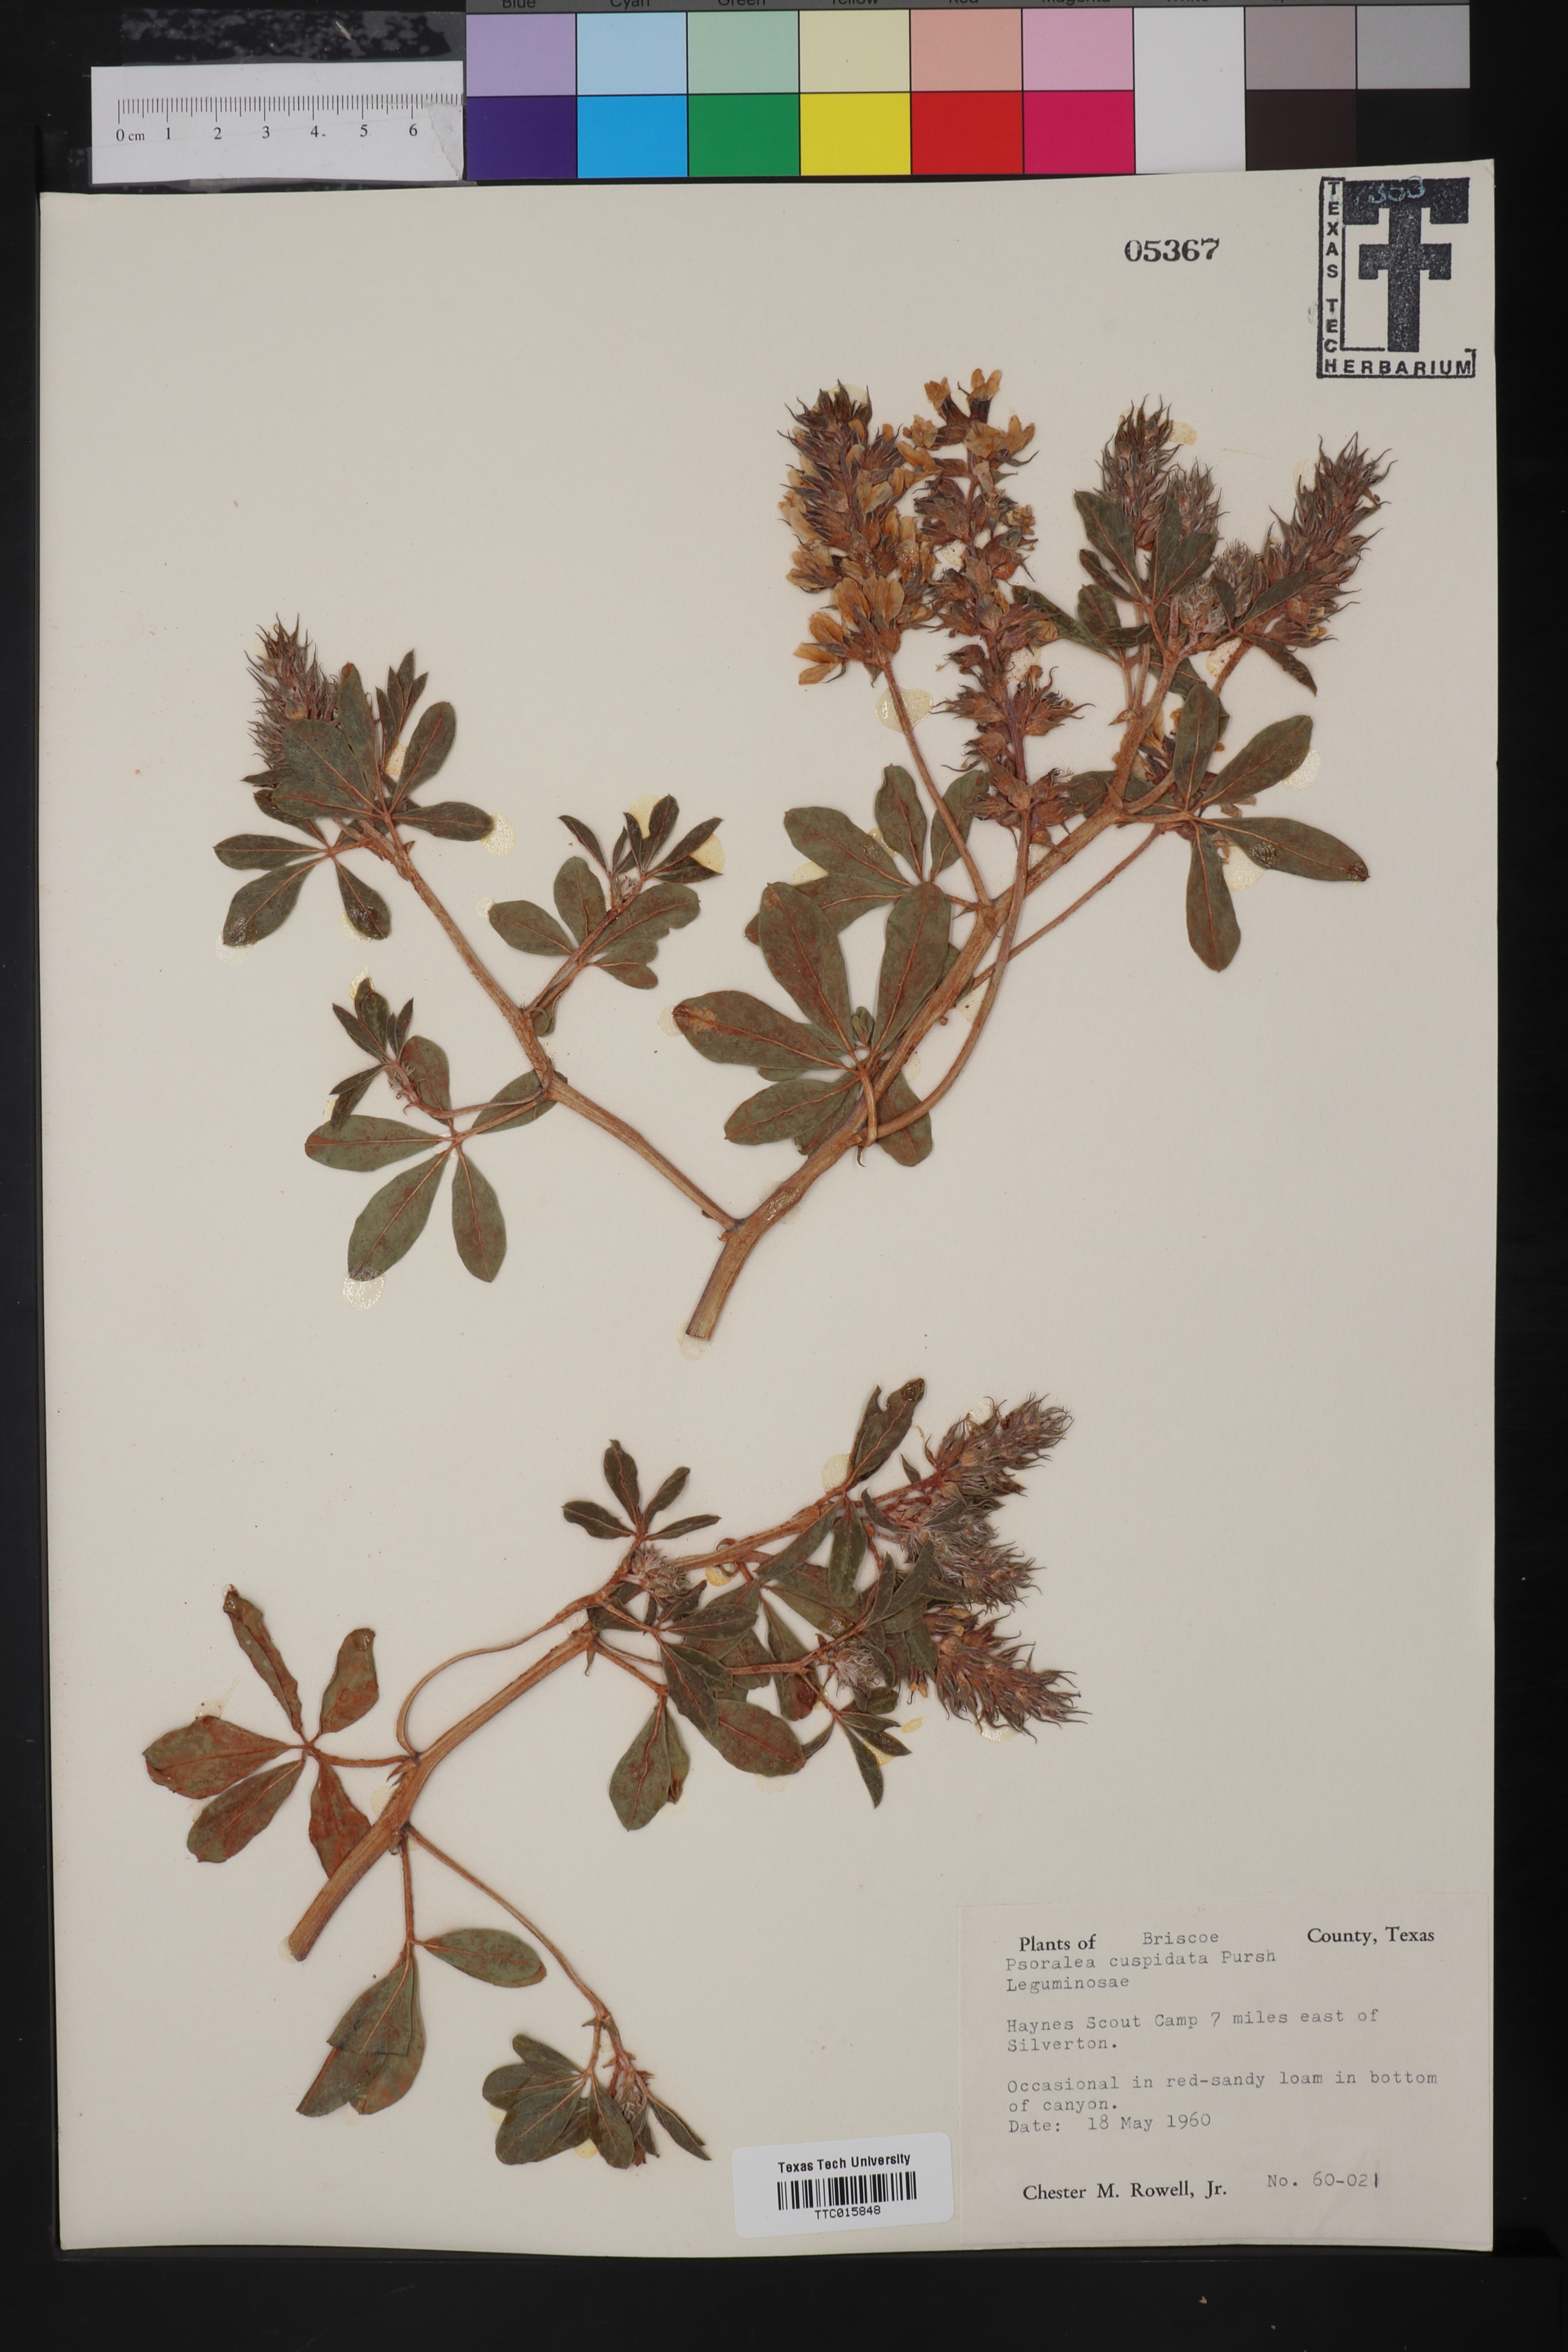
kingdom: Plantae
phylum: Tracheophyta
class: Magnoliopsida
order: Fabales
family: Fabaceae
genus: Pediomelum
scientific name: Pediomelum cuspidatum
